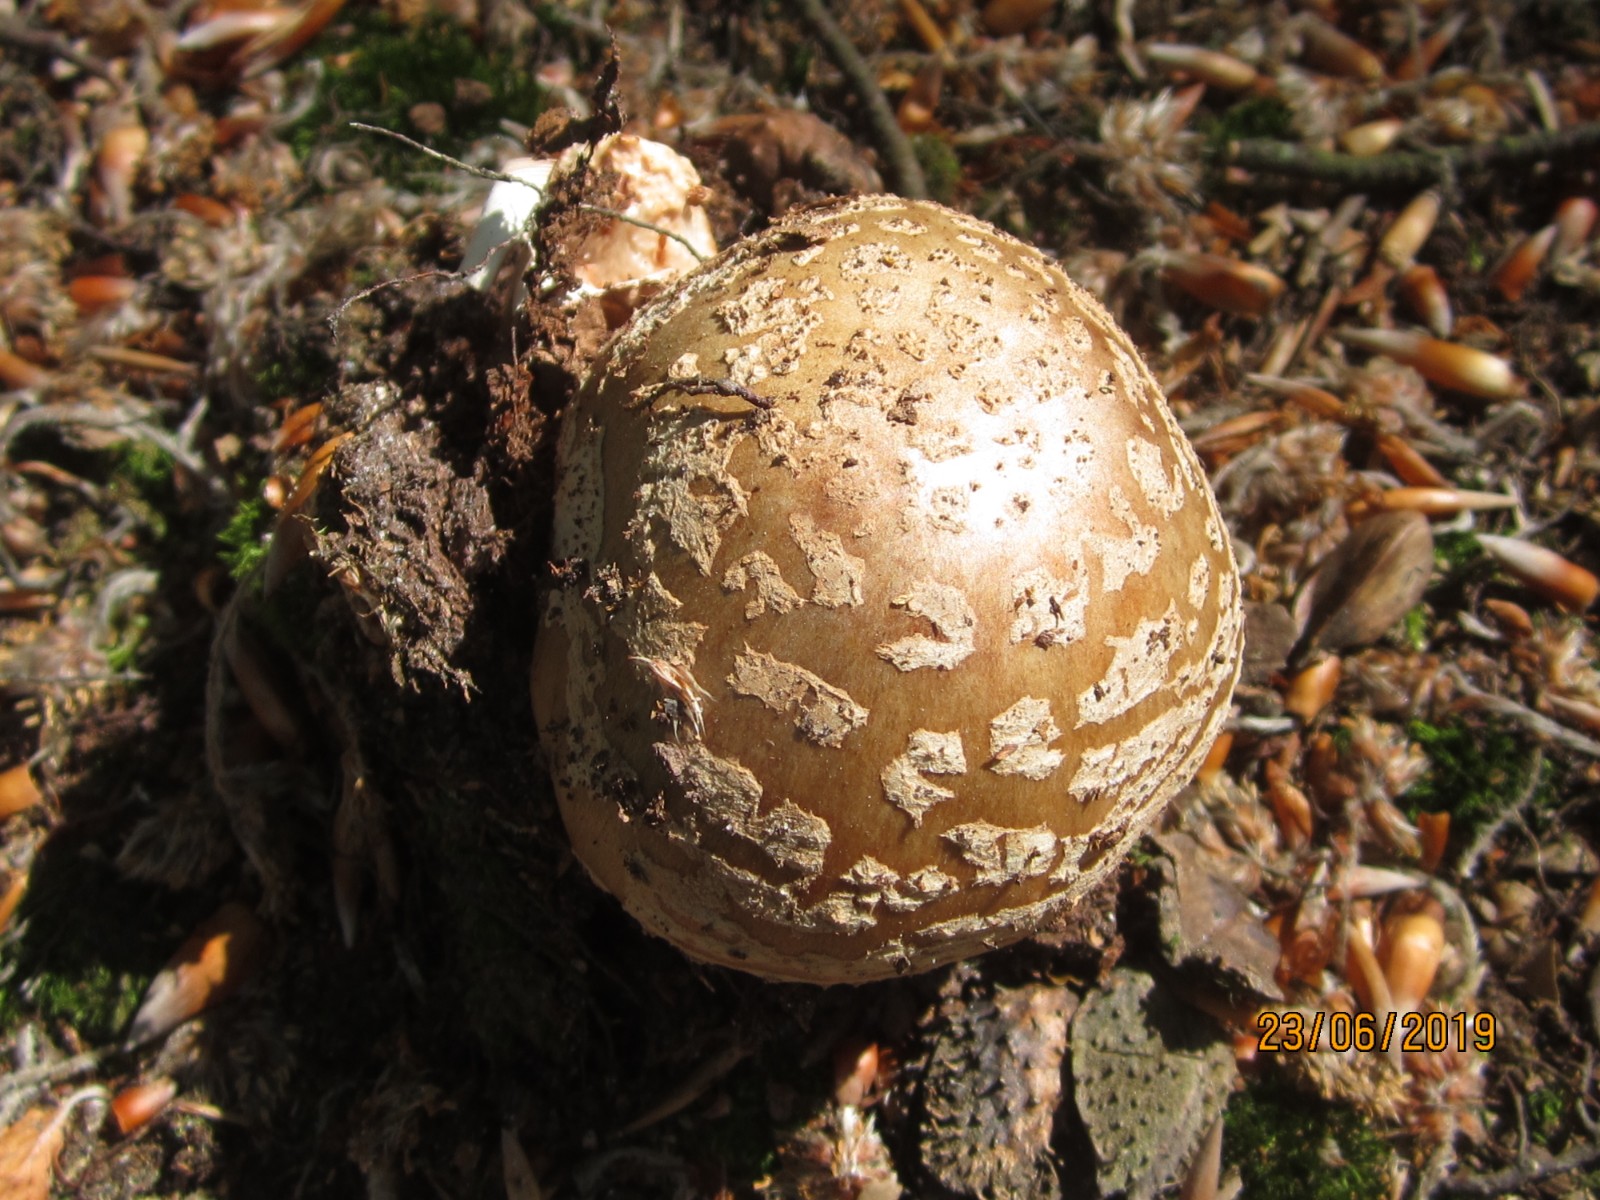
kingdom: Fungi
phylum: Basidiomycota
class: Agaricomycetes
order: Agaricales
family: Amanitaceae
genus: Amanita
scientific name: Amanita rubescens
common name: rødmende fluesvamp
